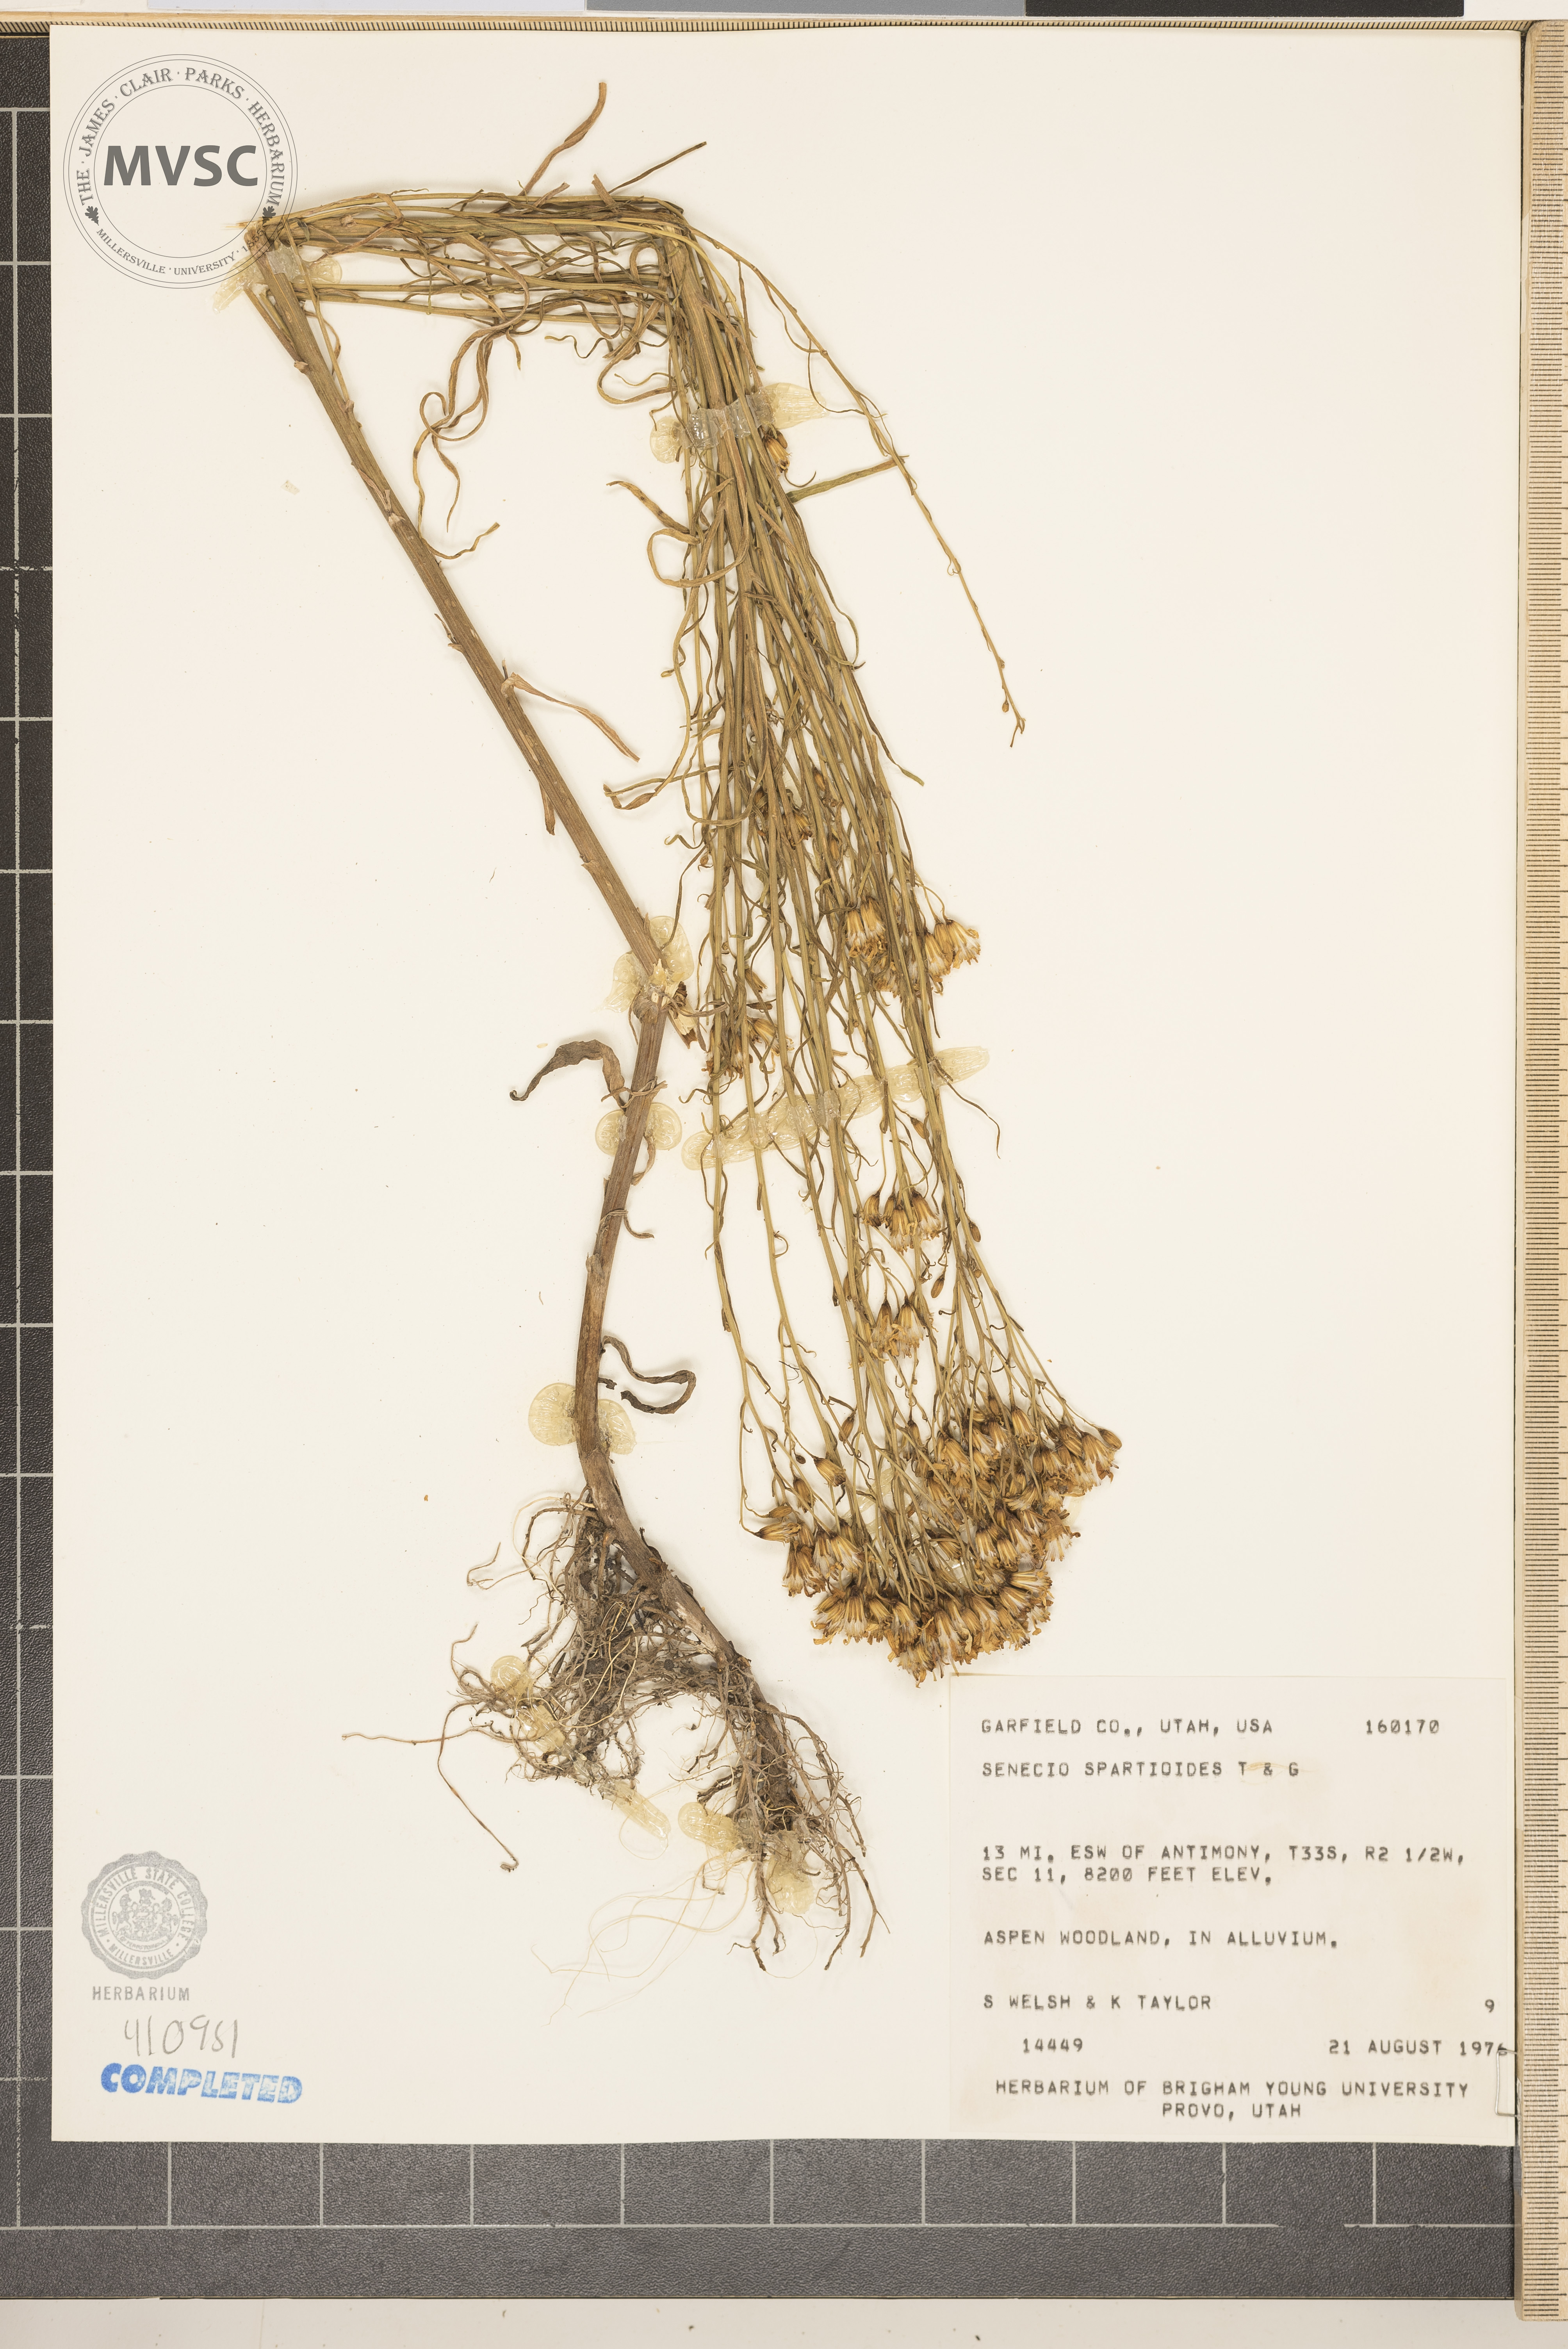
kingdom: Plantae
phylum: Tracheophyta
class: Magnoliopsida
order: Asterales
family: Asteraceae
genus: Senecio
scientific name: Senecio spartioides
